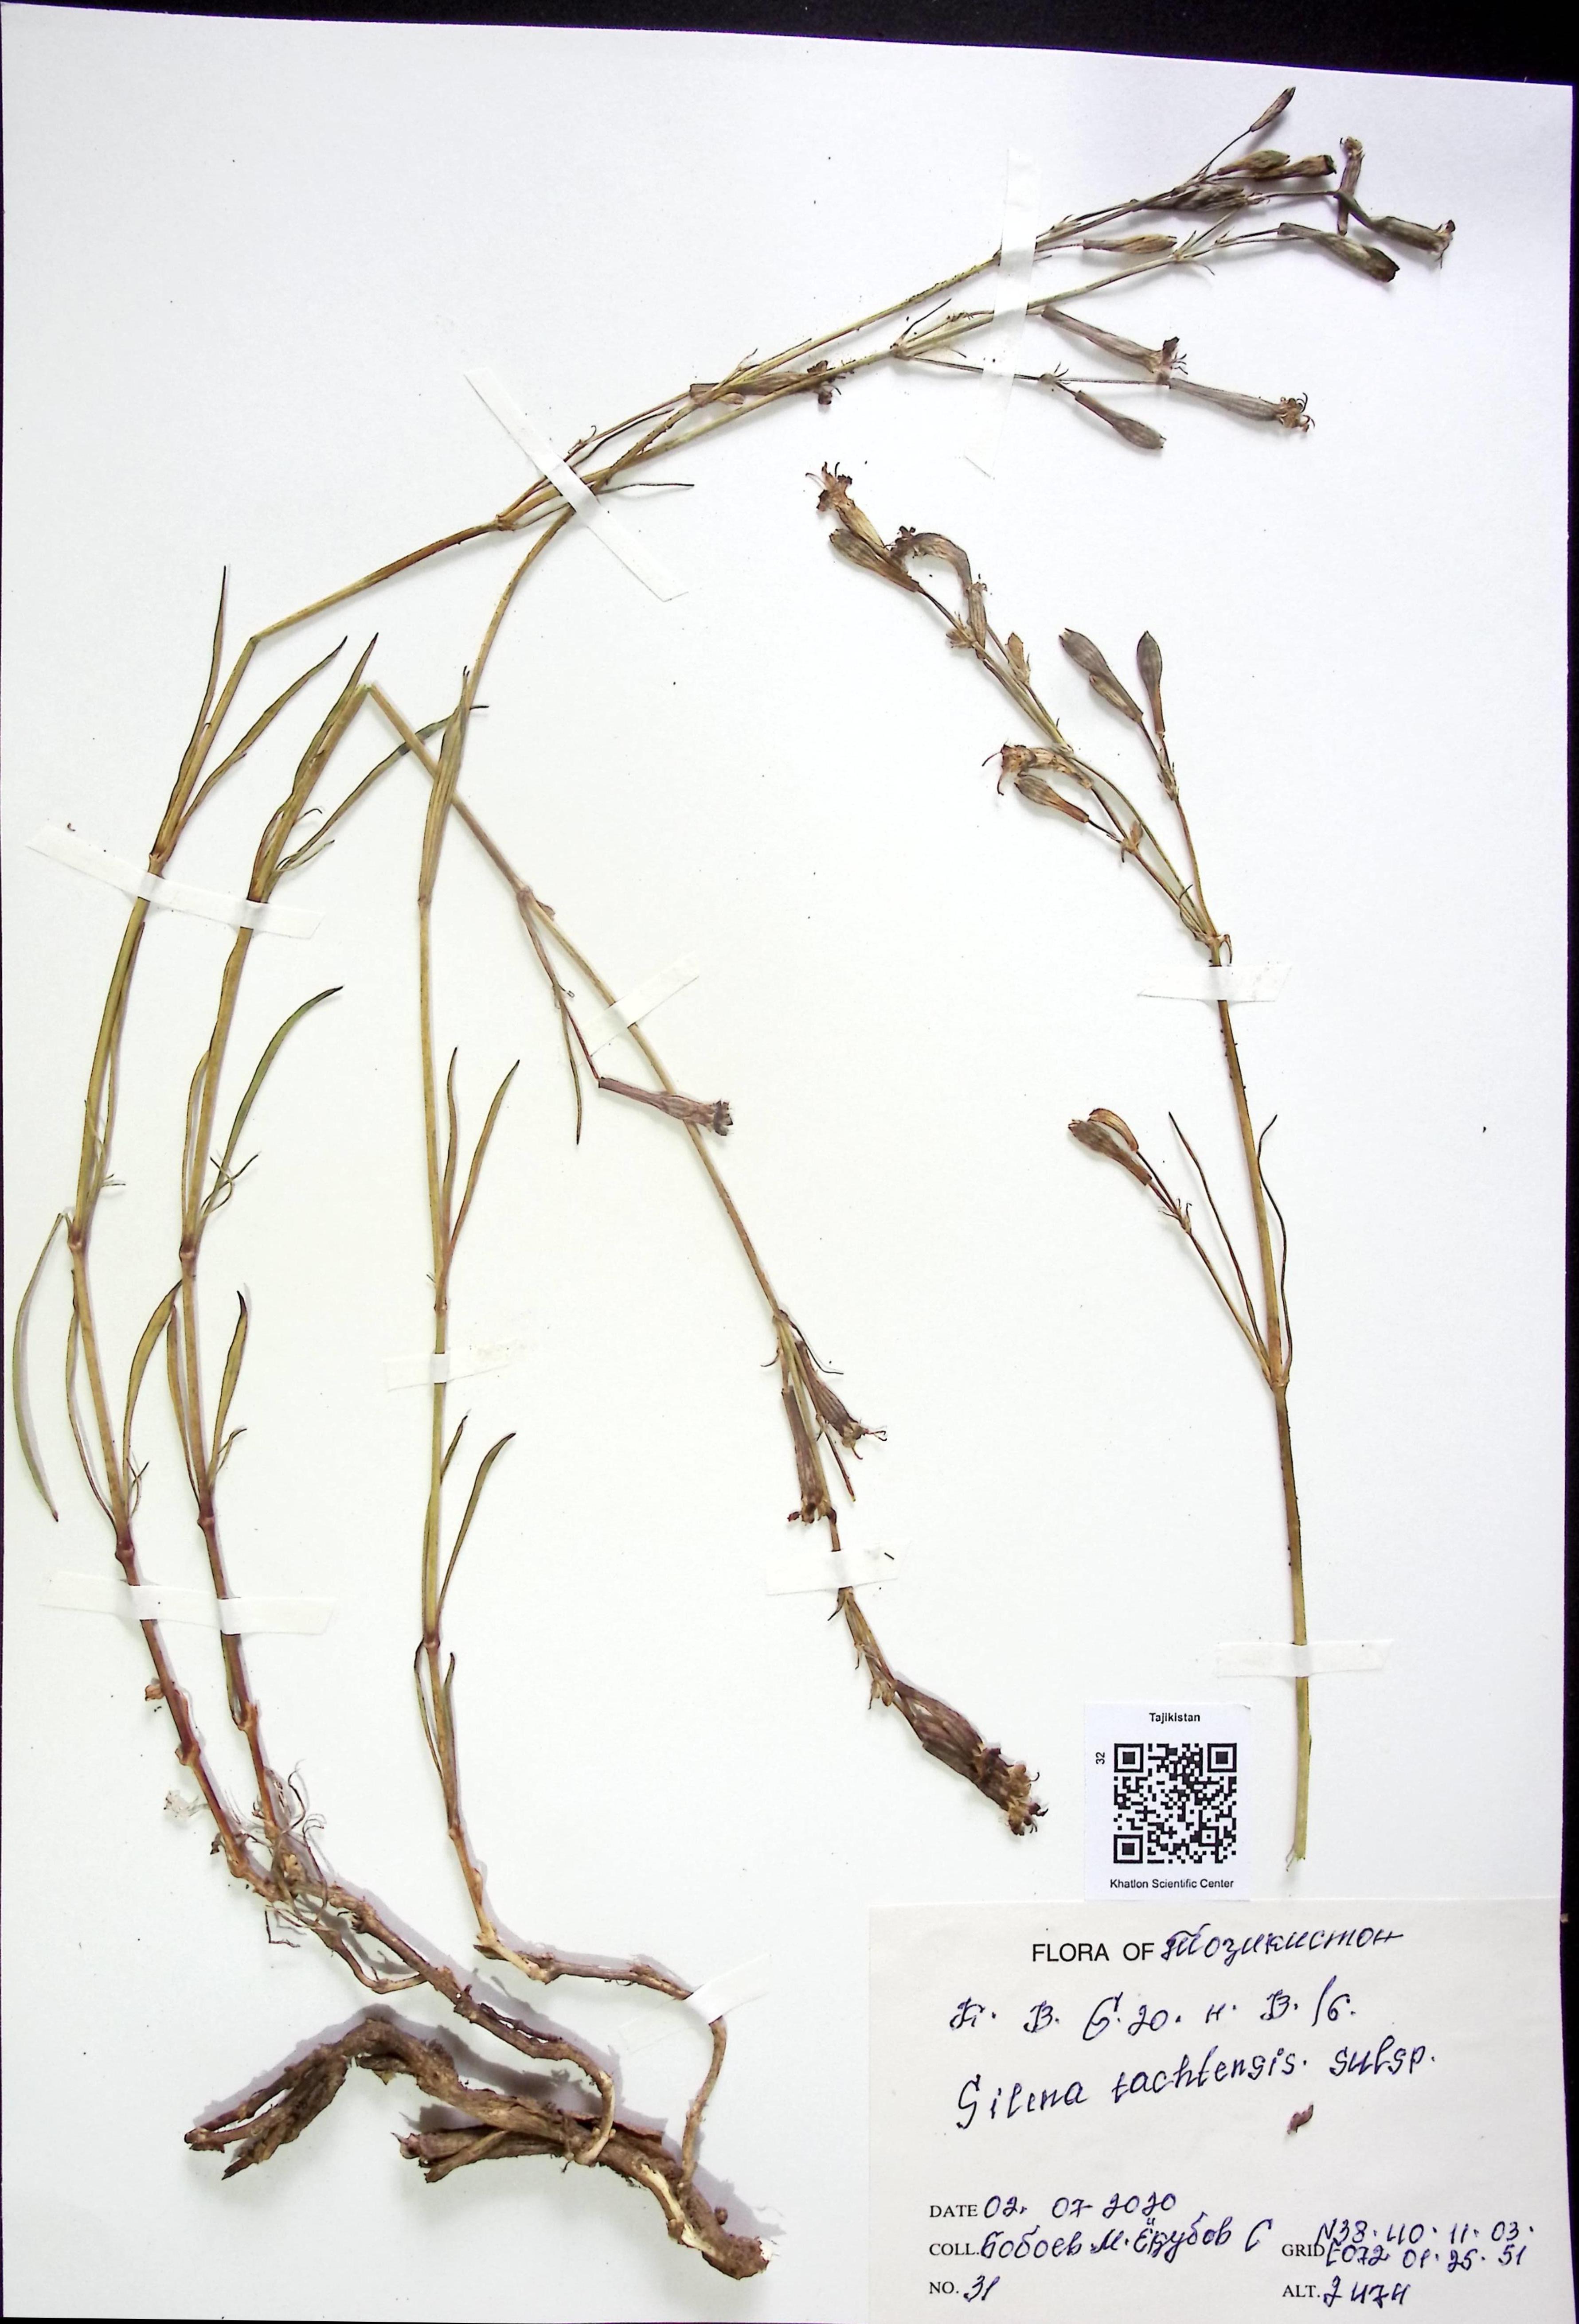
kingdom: Plantae
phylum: Tracheophyta
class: Magnoliopsida
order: Caryophyllales
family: Caryophyllaceae
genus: Silene
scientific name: Silene tachtensis
